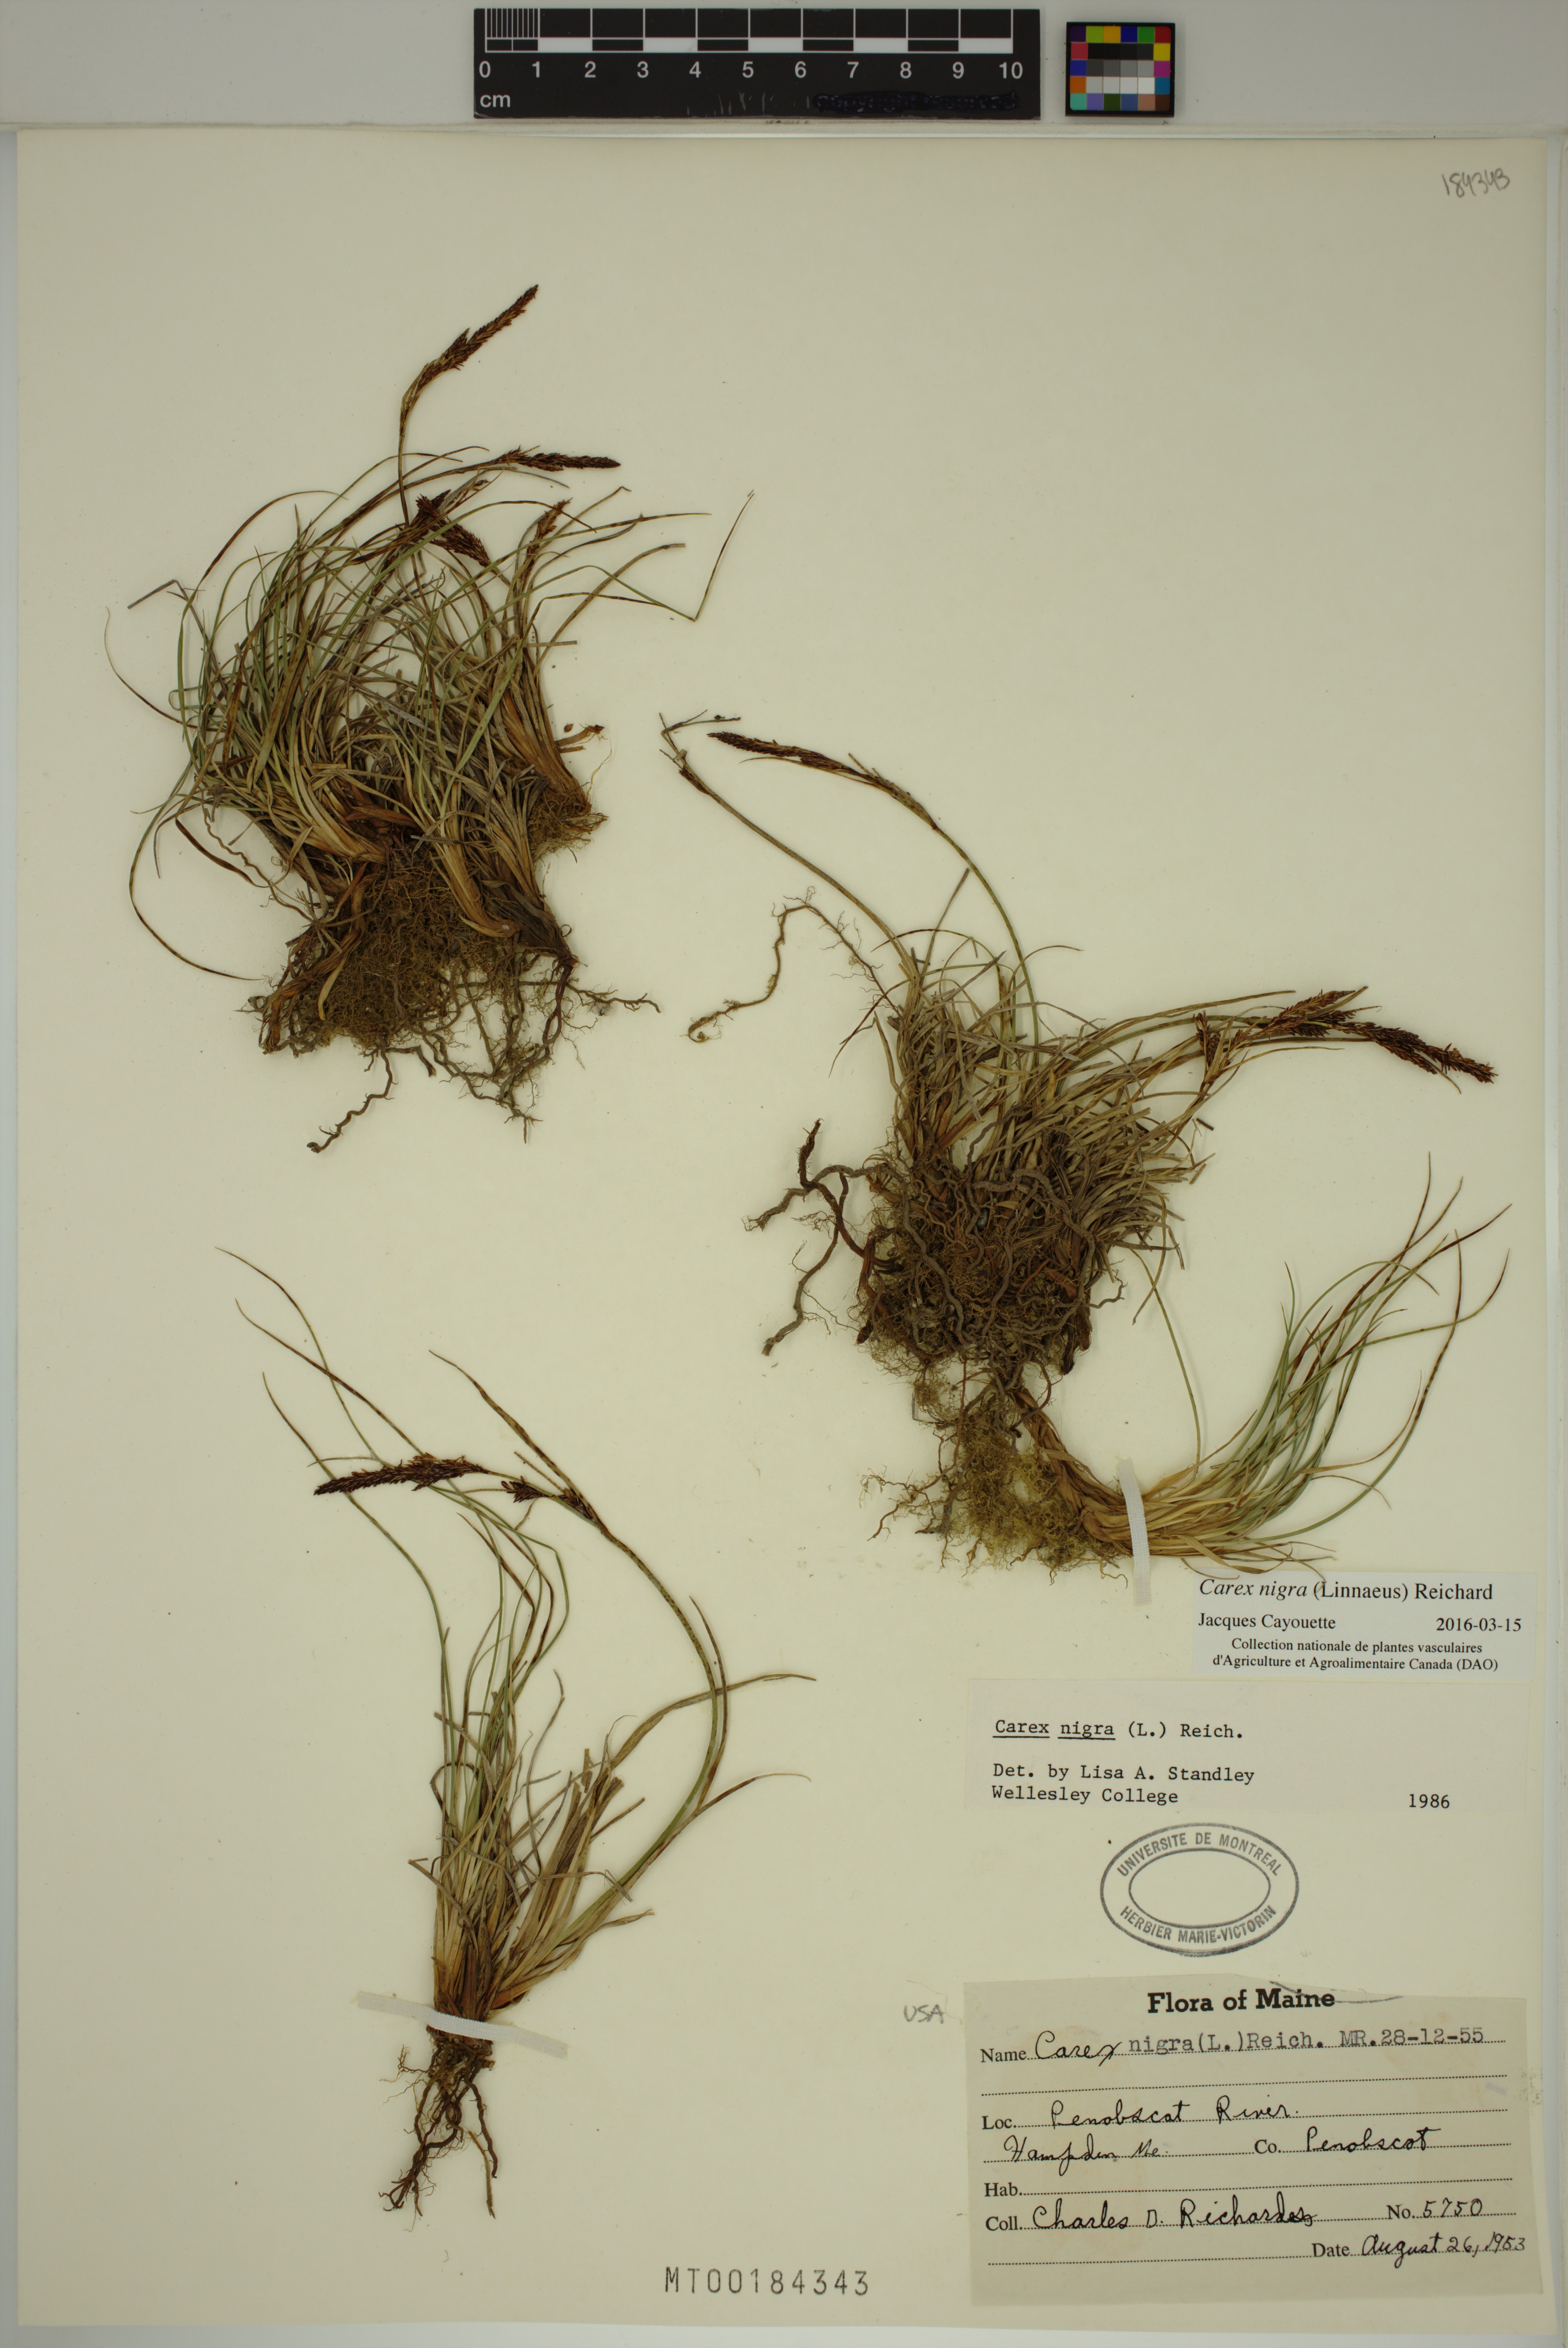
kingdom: Plantae
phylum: Tracheophyta
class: Liliopsida
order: Poales
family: Cyperaceae
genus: Carex
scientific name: Carex nigra
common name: Common sedge
